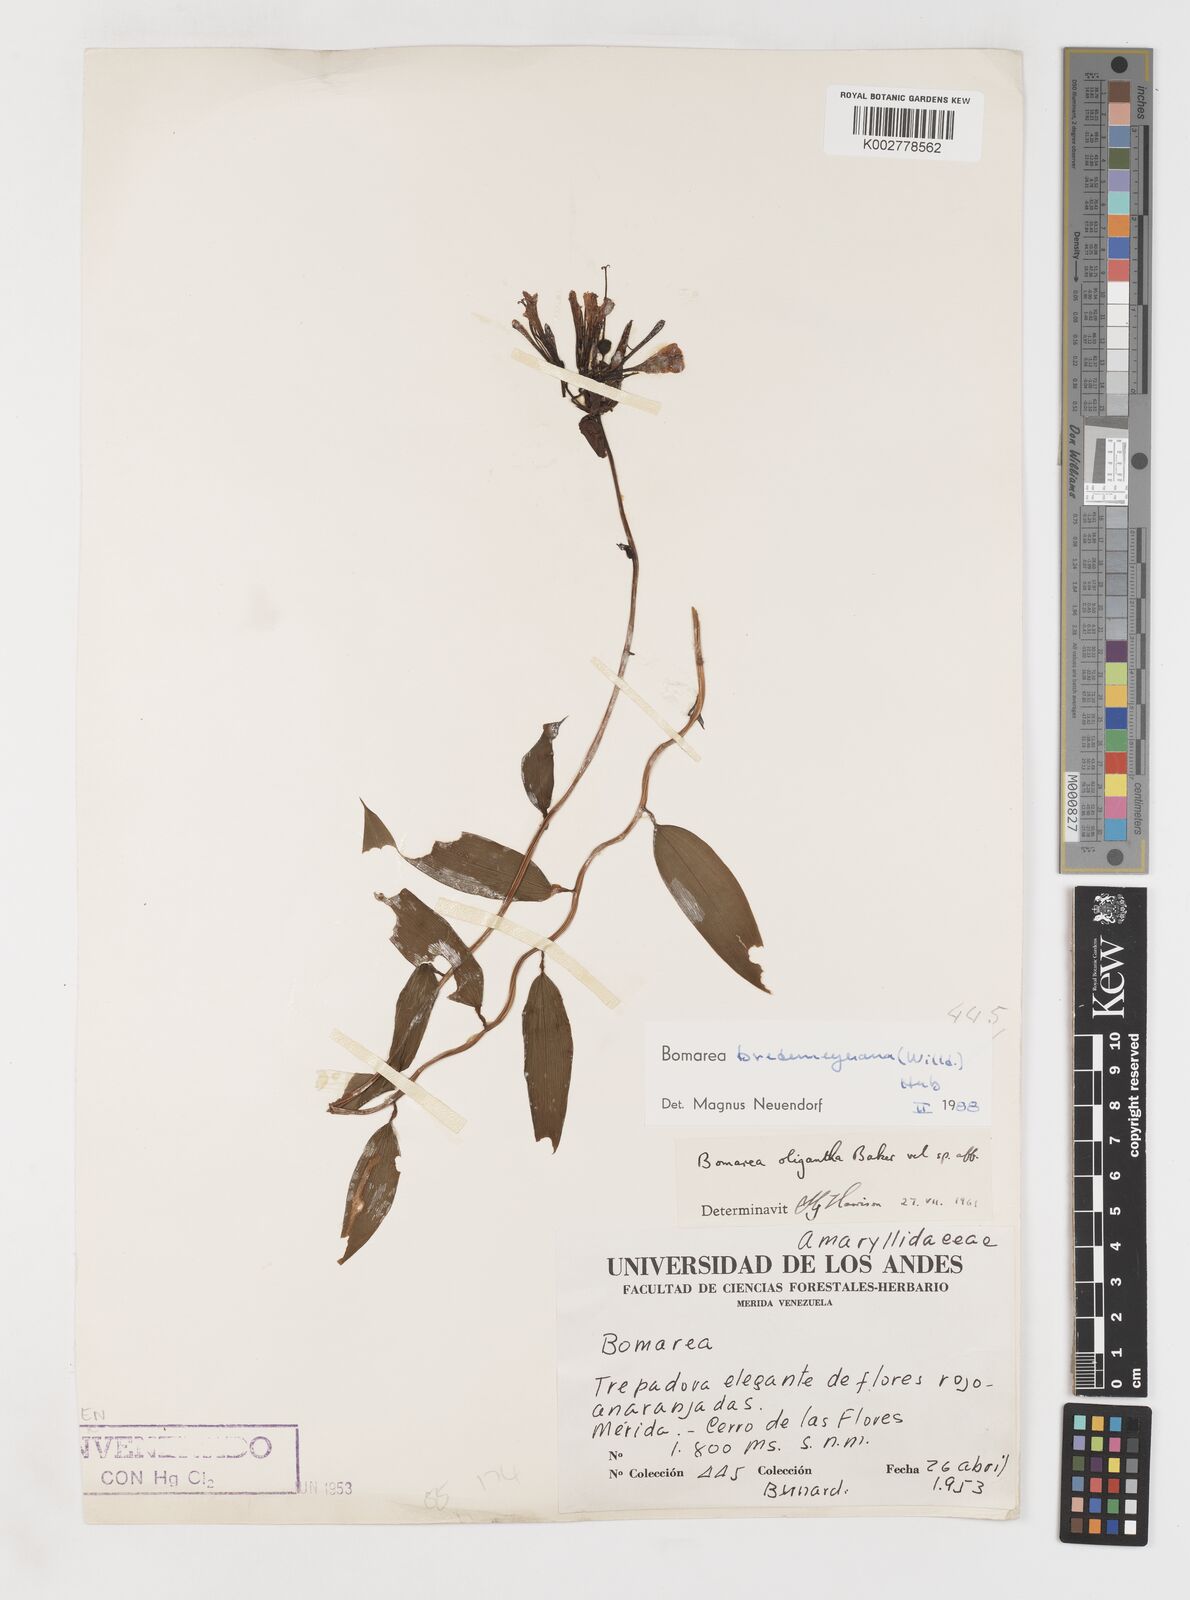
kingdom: Plantae
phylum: Tracheophyta
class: Liliopsida
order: Liliales
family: Alstroemeriaceae
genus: Bomarea
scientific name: Bomarea multiflora
